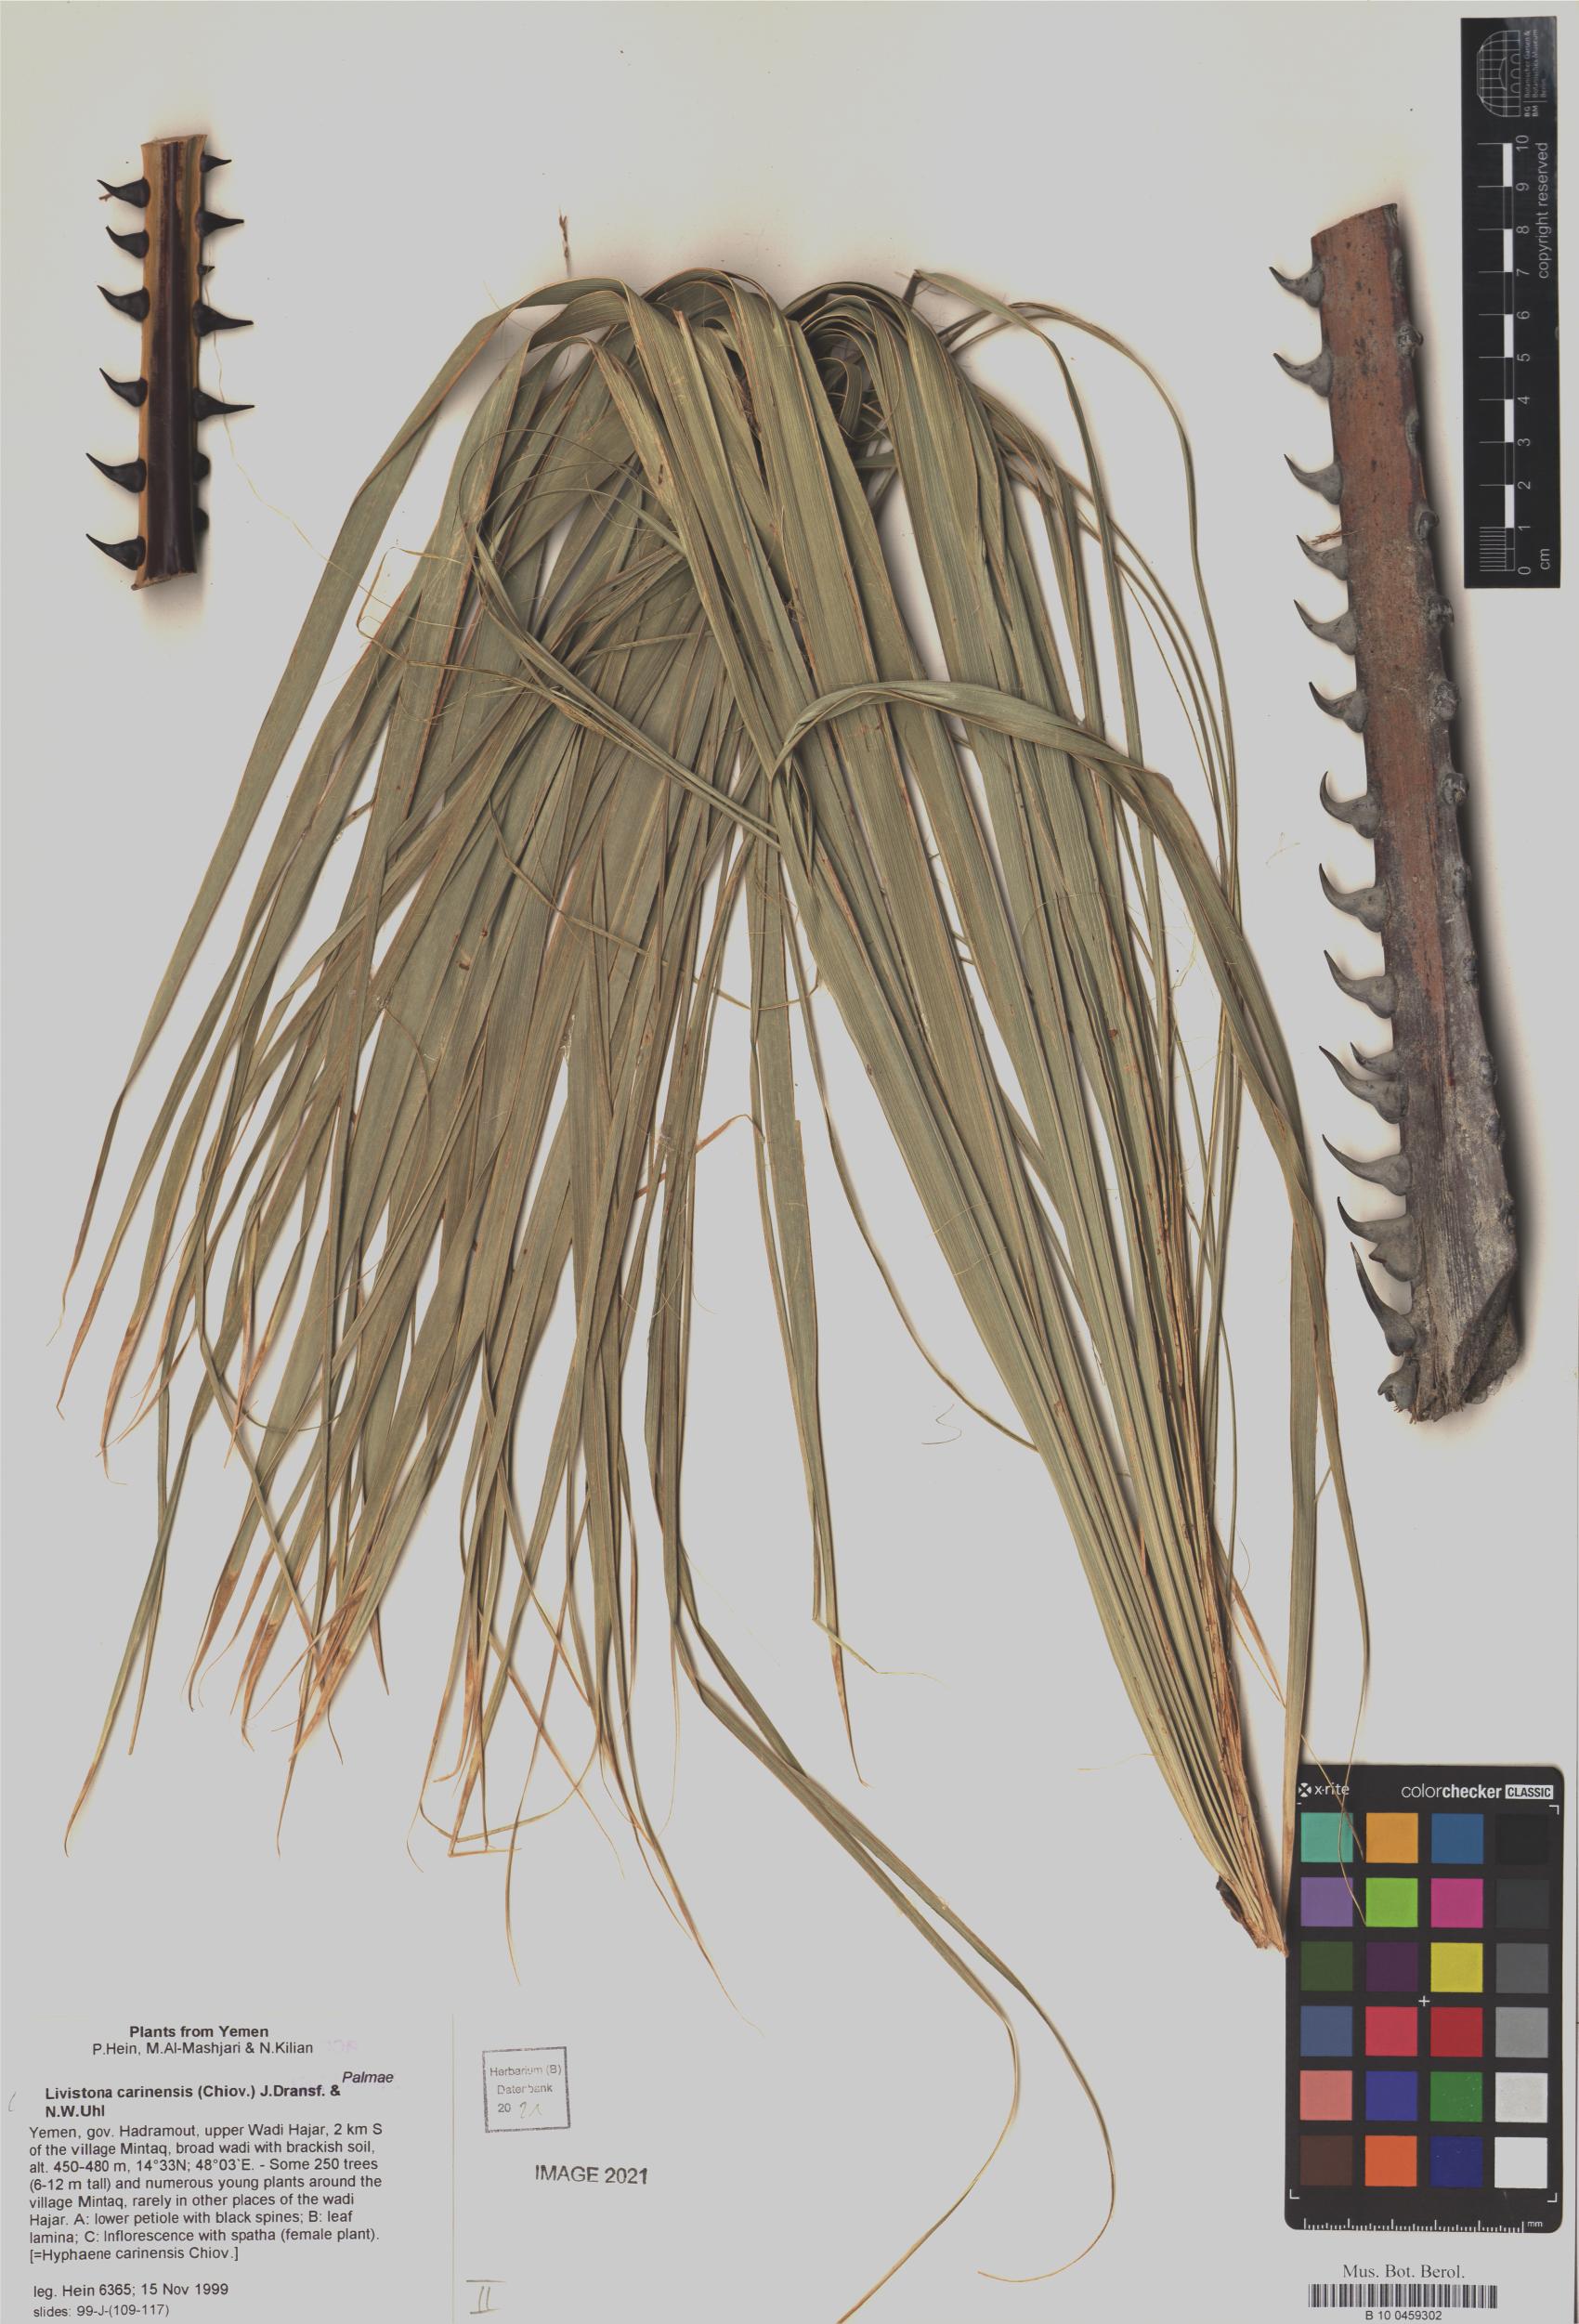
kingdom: Plantae
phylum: Tracheophyta
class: Liliopsida
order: Arecales
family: Arecaceae
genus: Livistona
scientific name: Livistona carinensis
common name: Bankoualé palm
